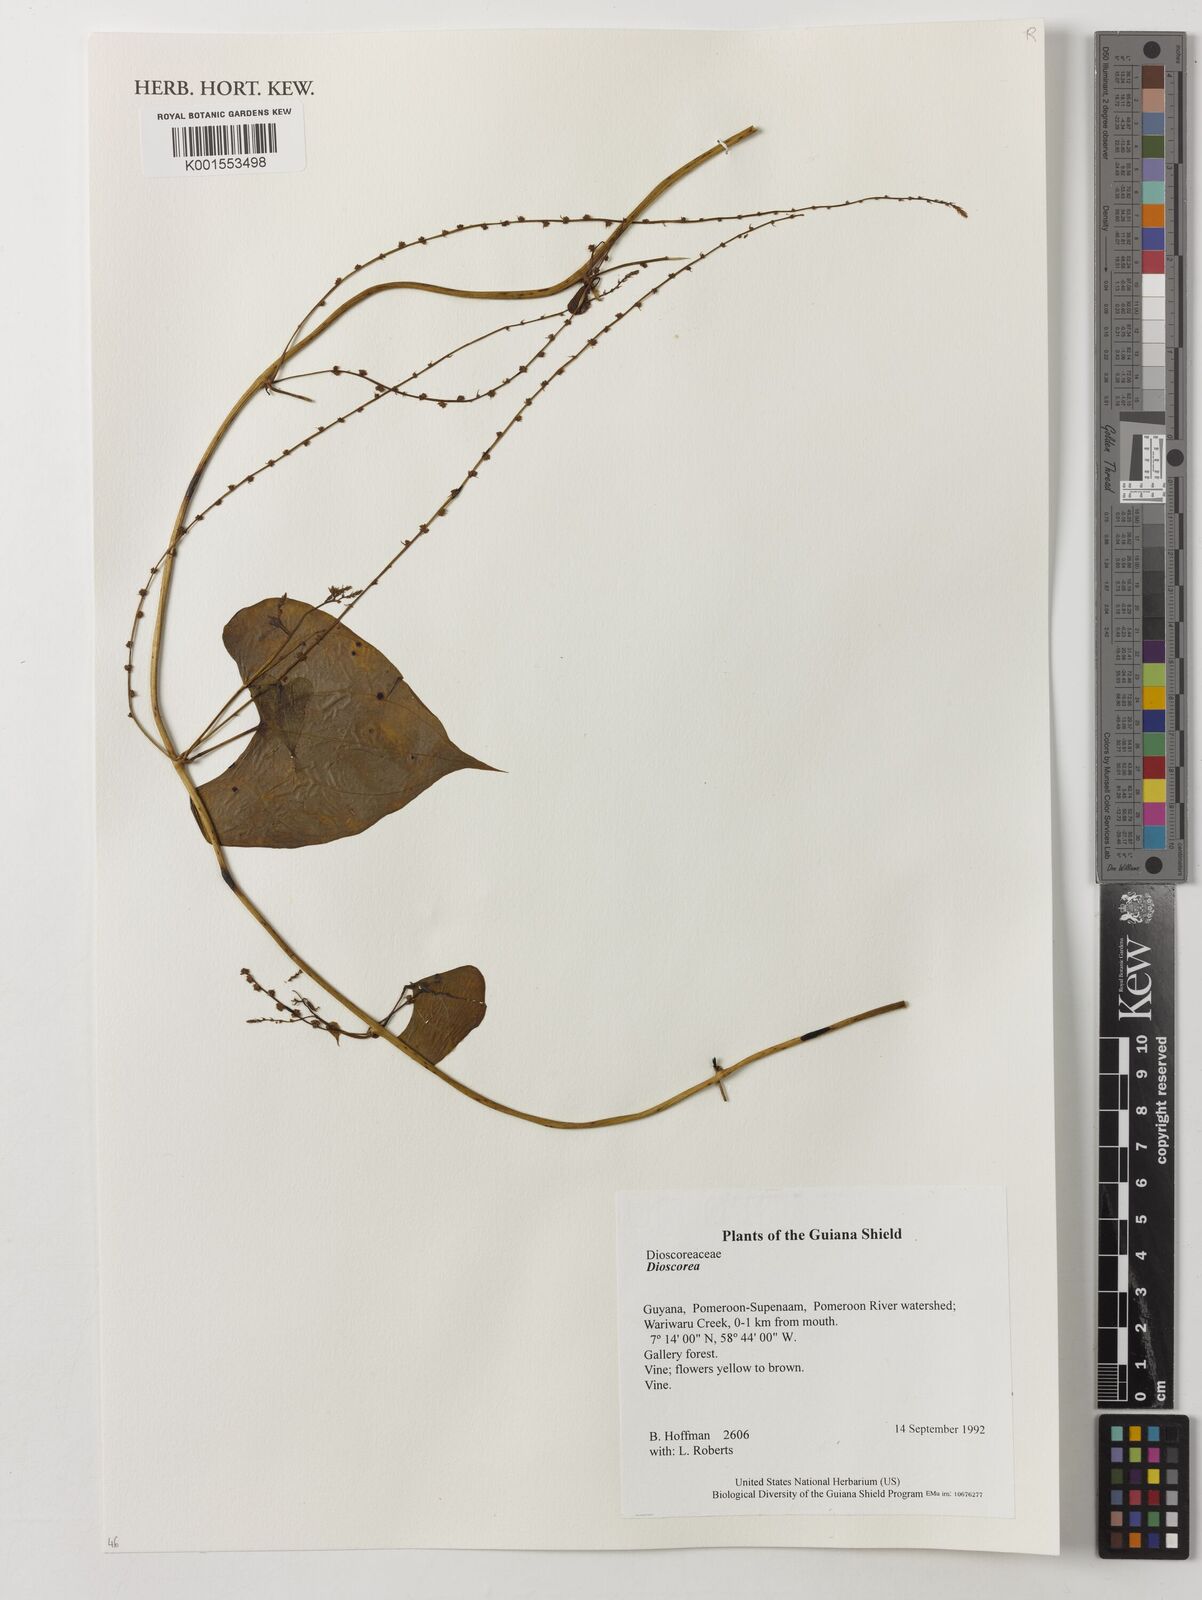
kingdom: Plantae
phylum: Tracheophyta
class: Liliopsida
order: Dioscoreales
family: Dioscoreaceae
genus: Dioscorea
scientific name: Dioscorea
